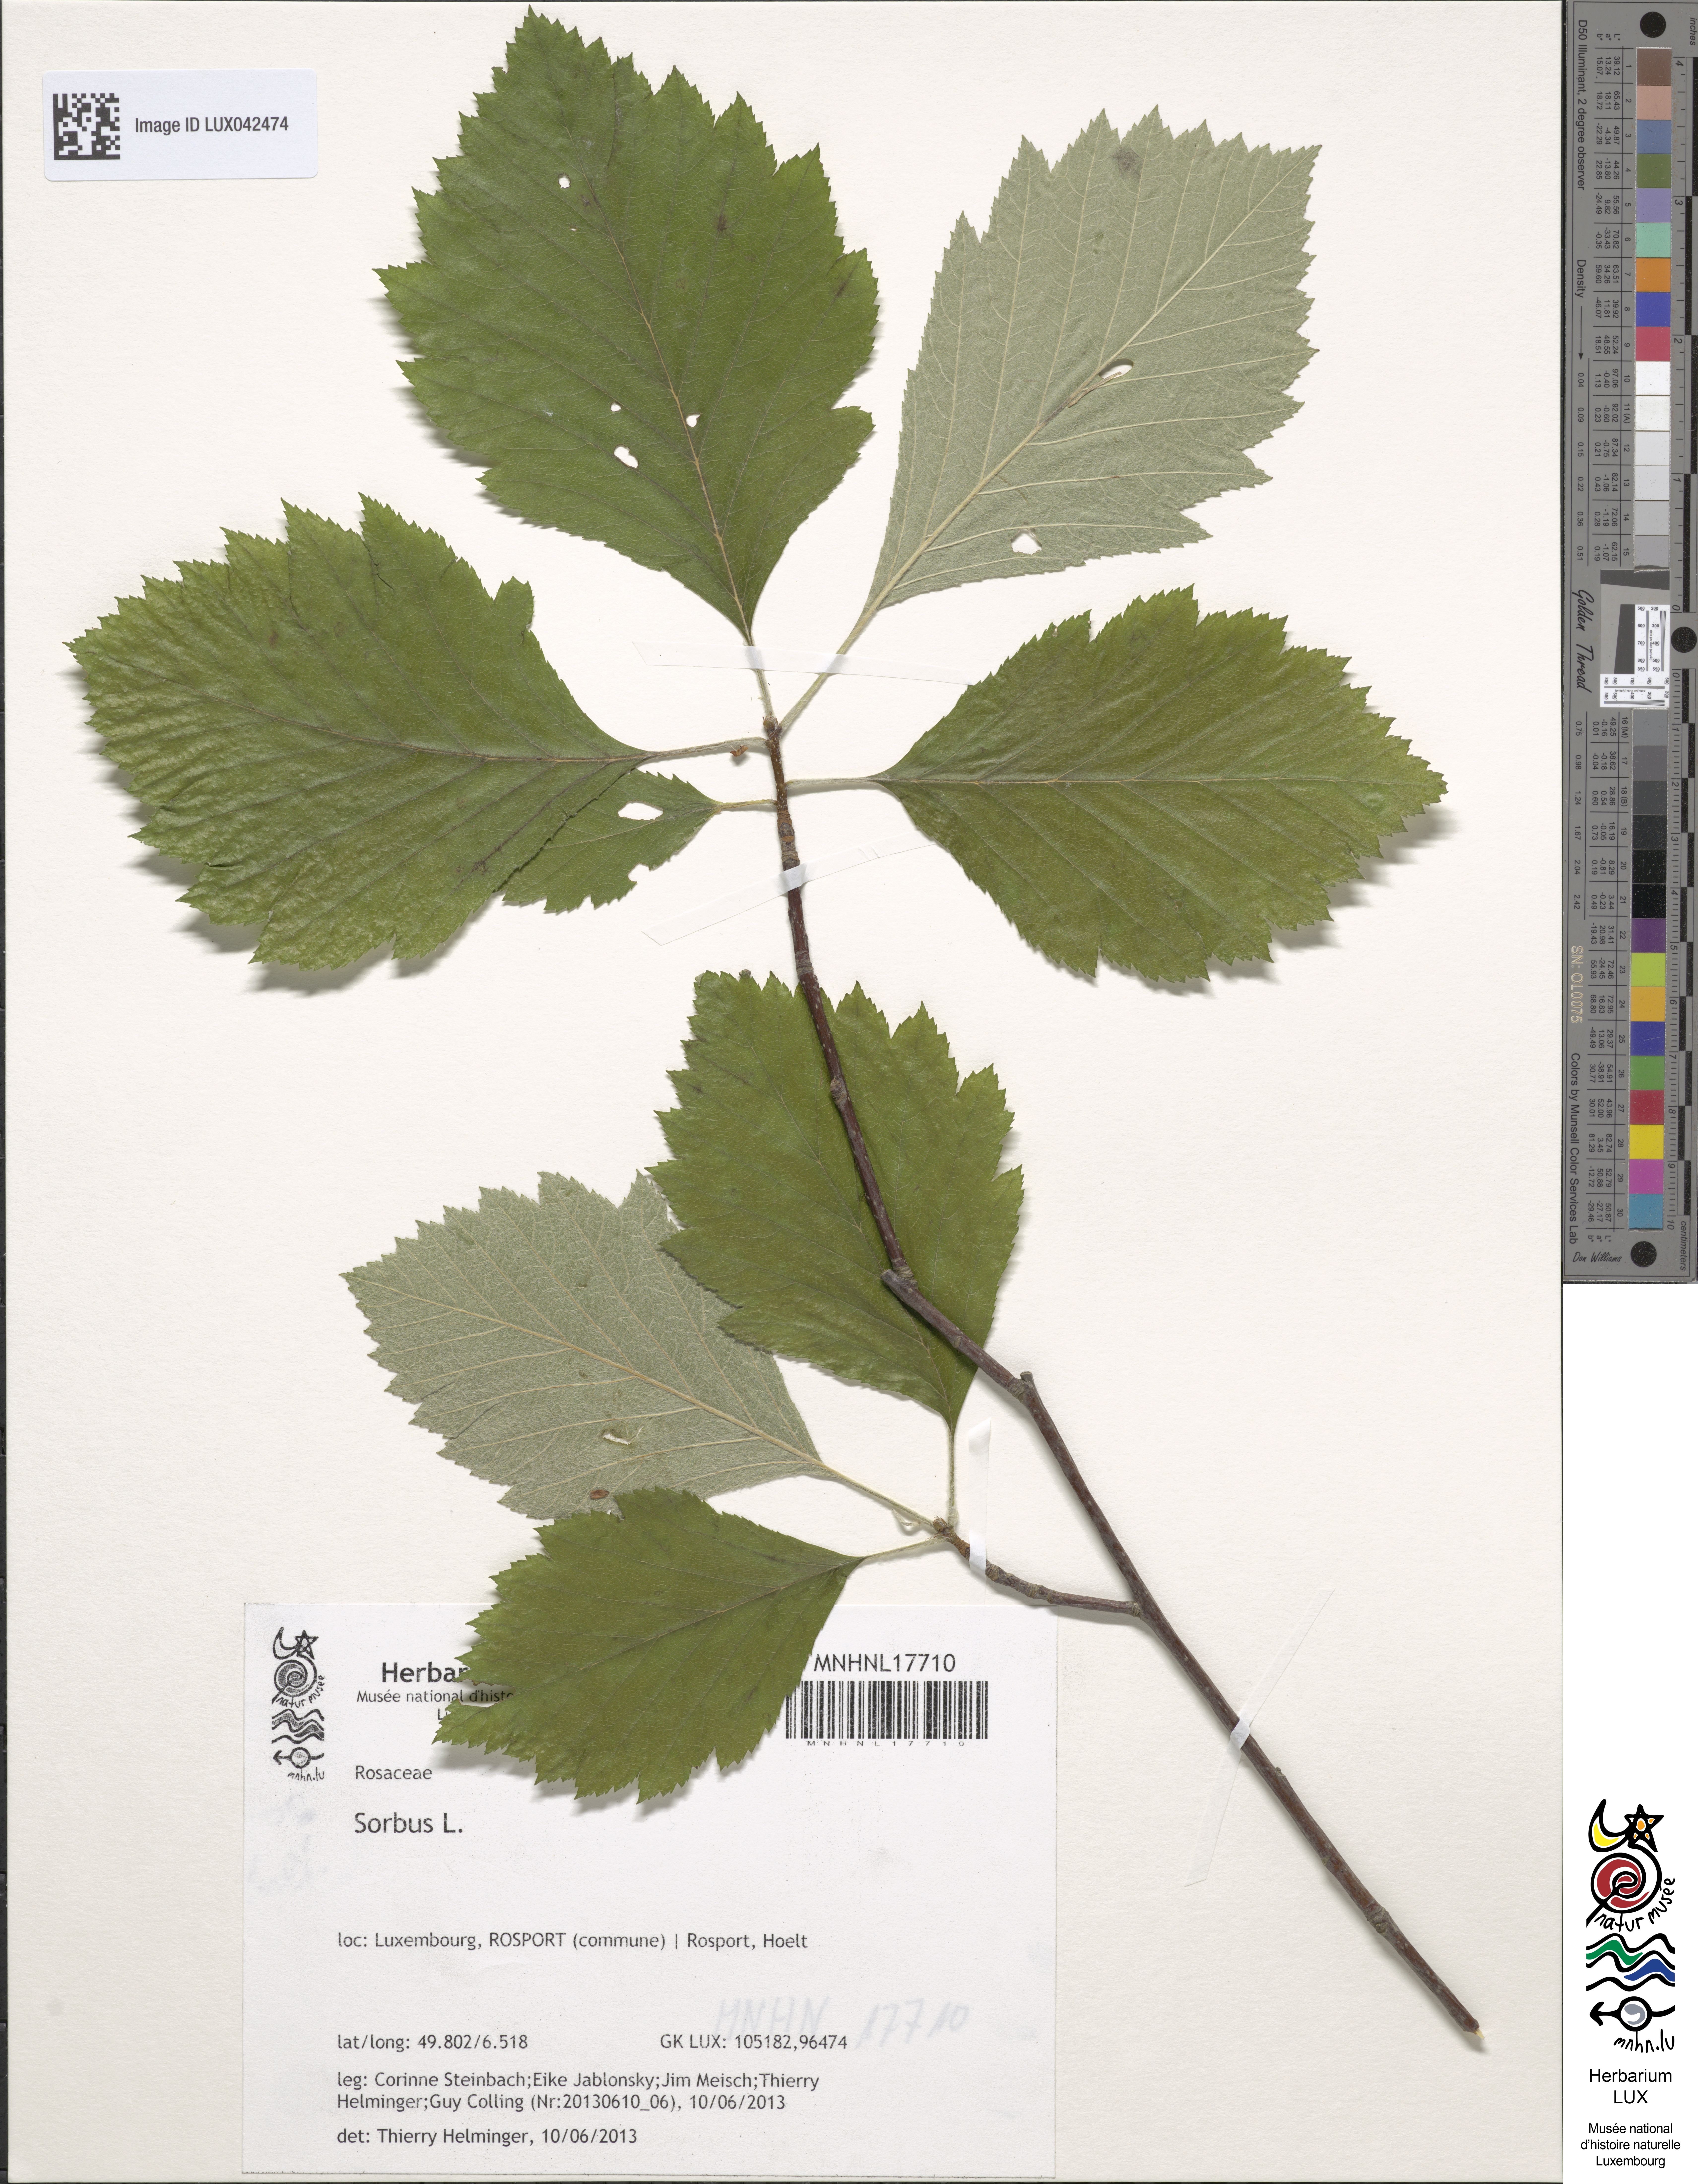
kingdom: Plantae
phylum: Tracheophyta
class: Magnoliopsida
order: Rosales
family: Rosaceae
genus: Sorbus
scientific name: Sorbus
